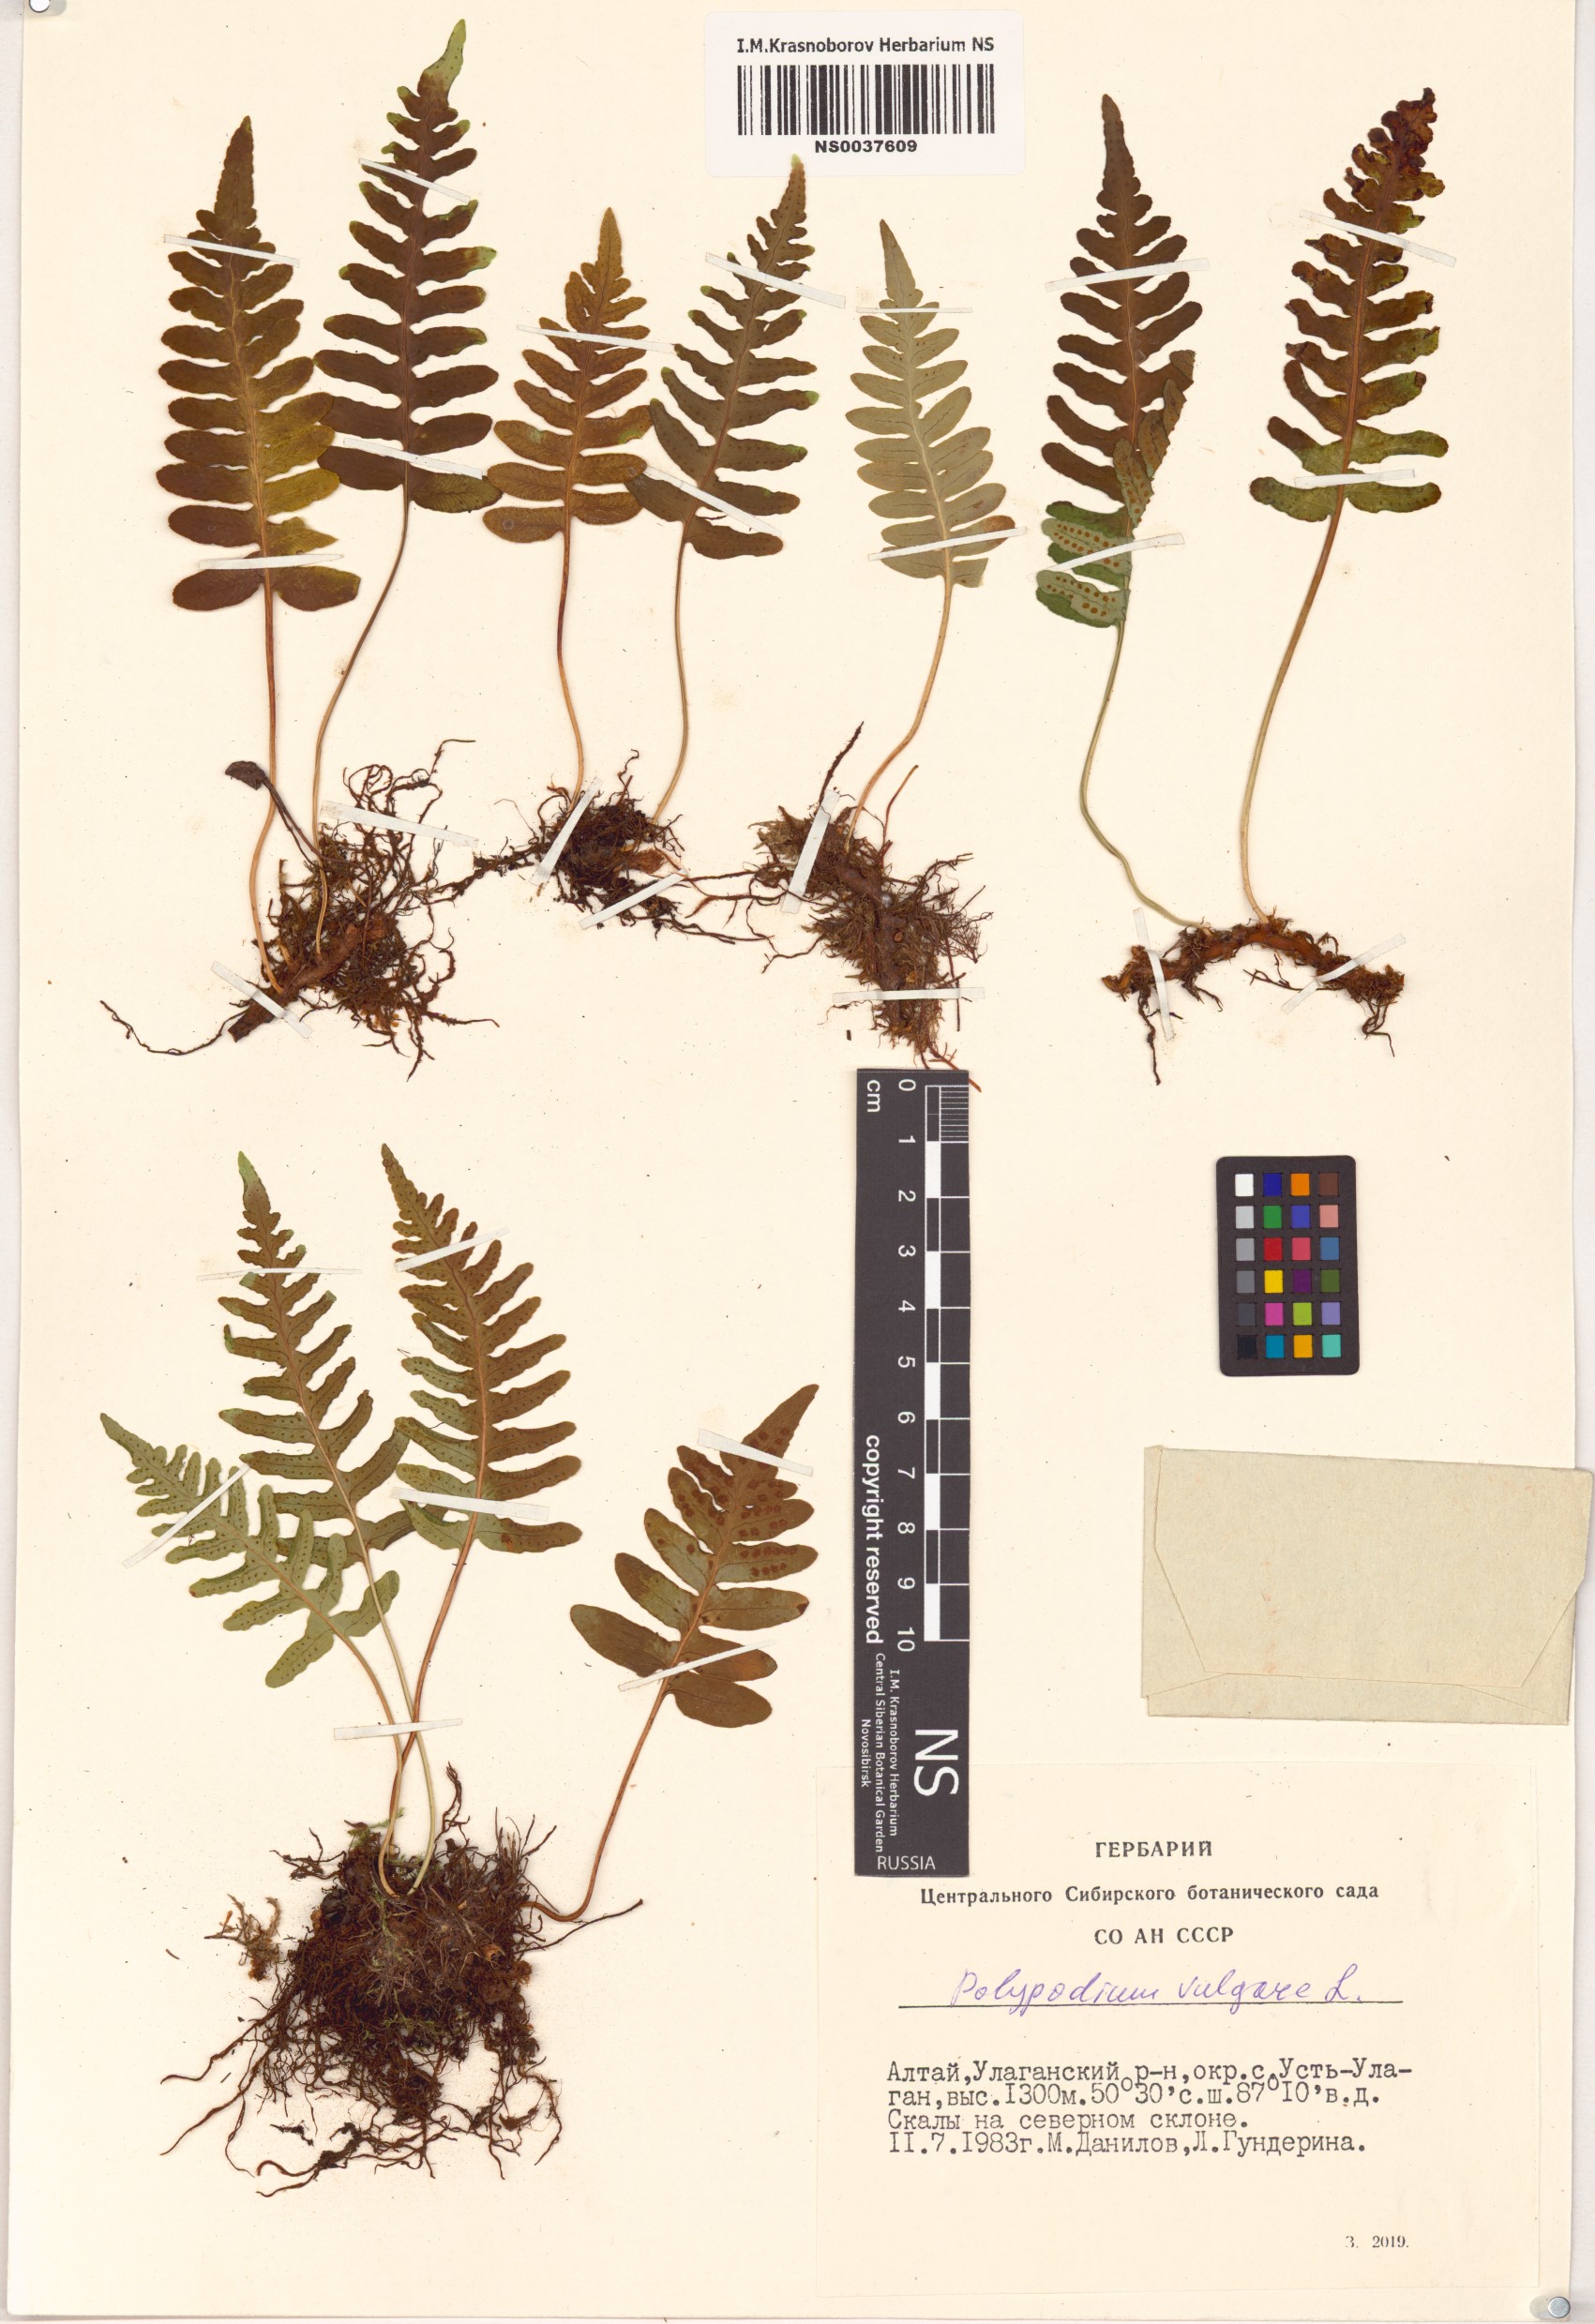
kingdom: Plantae
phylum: Tracheophyta
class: Polypodiopsida
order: Polypodiales
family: Polypodiaceae
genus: Polypodium
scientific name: Polypodium vulgare
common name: Common polypody
